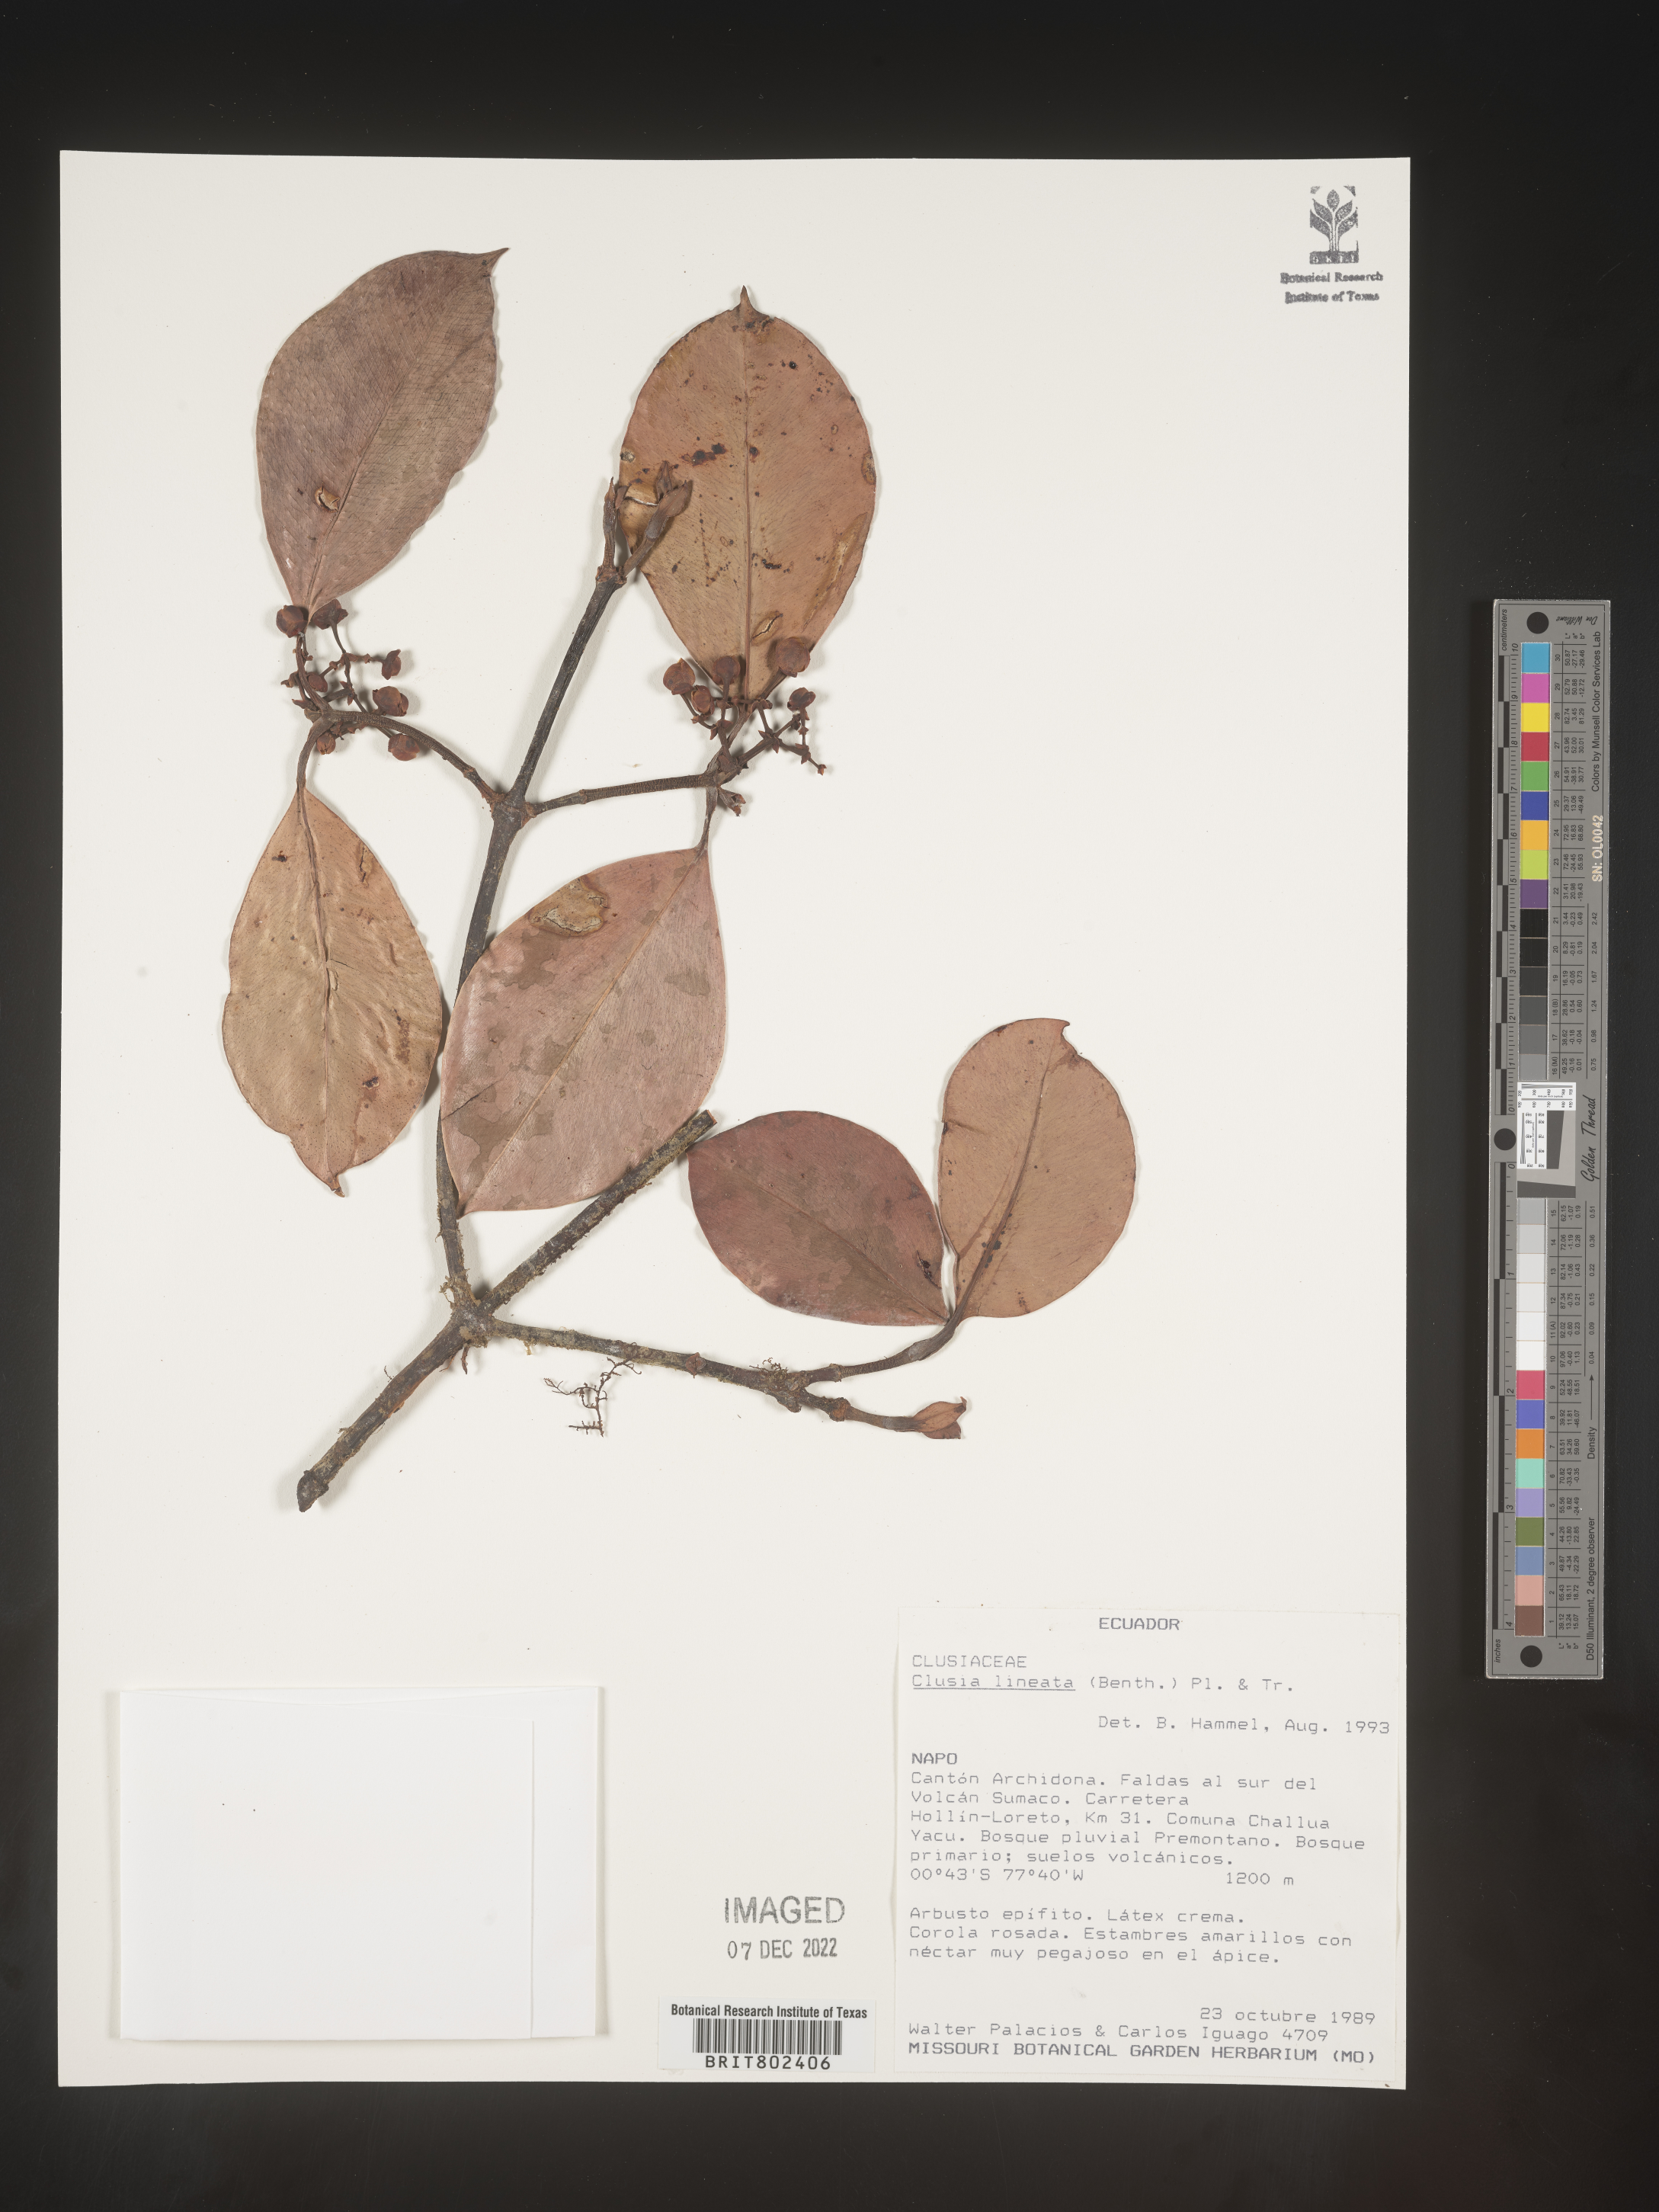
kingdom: Plantae
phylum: Tracheophyta
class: Magnoliopsida
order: Malpighiales
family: Clusiaceae
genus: Clusia
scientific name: Clusia lineata
